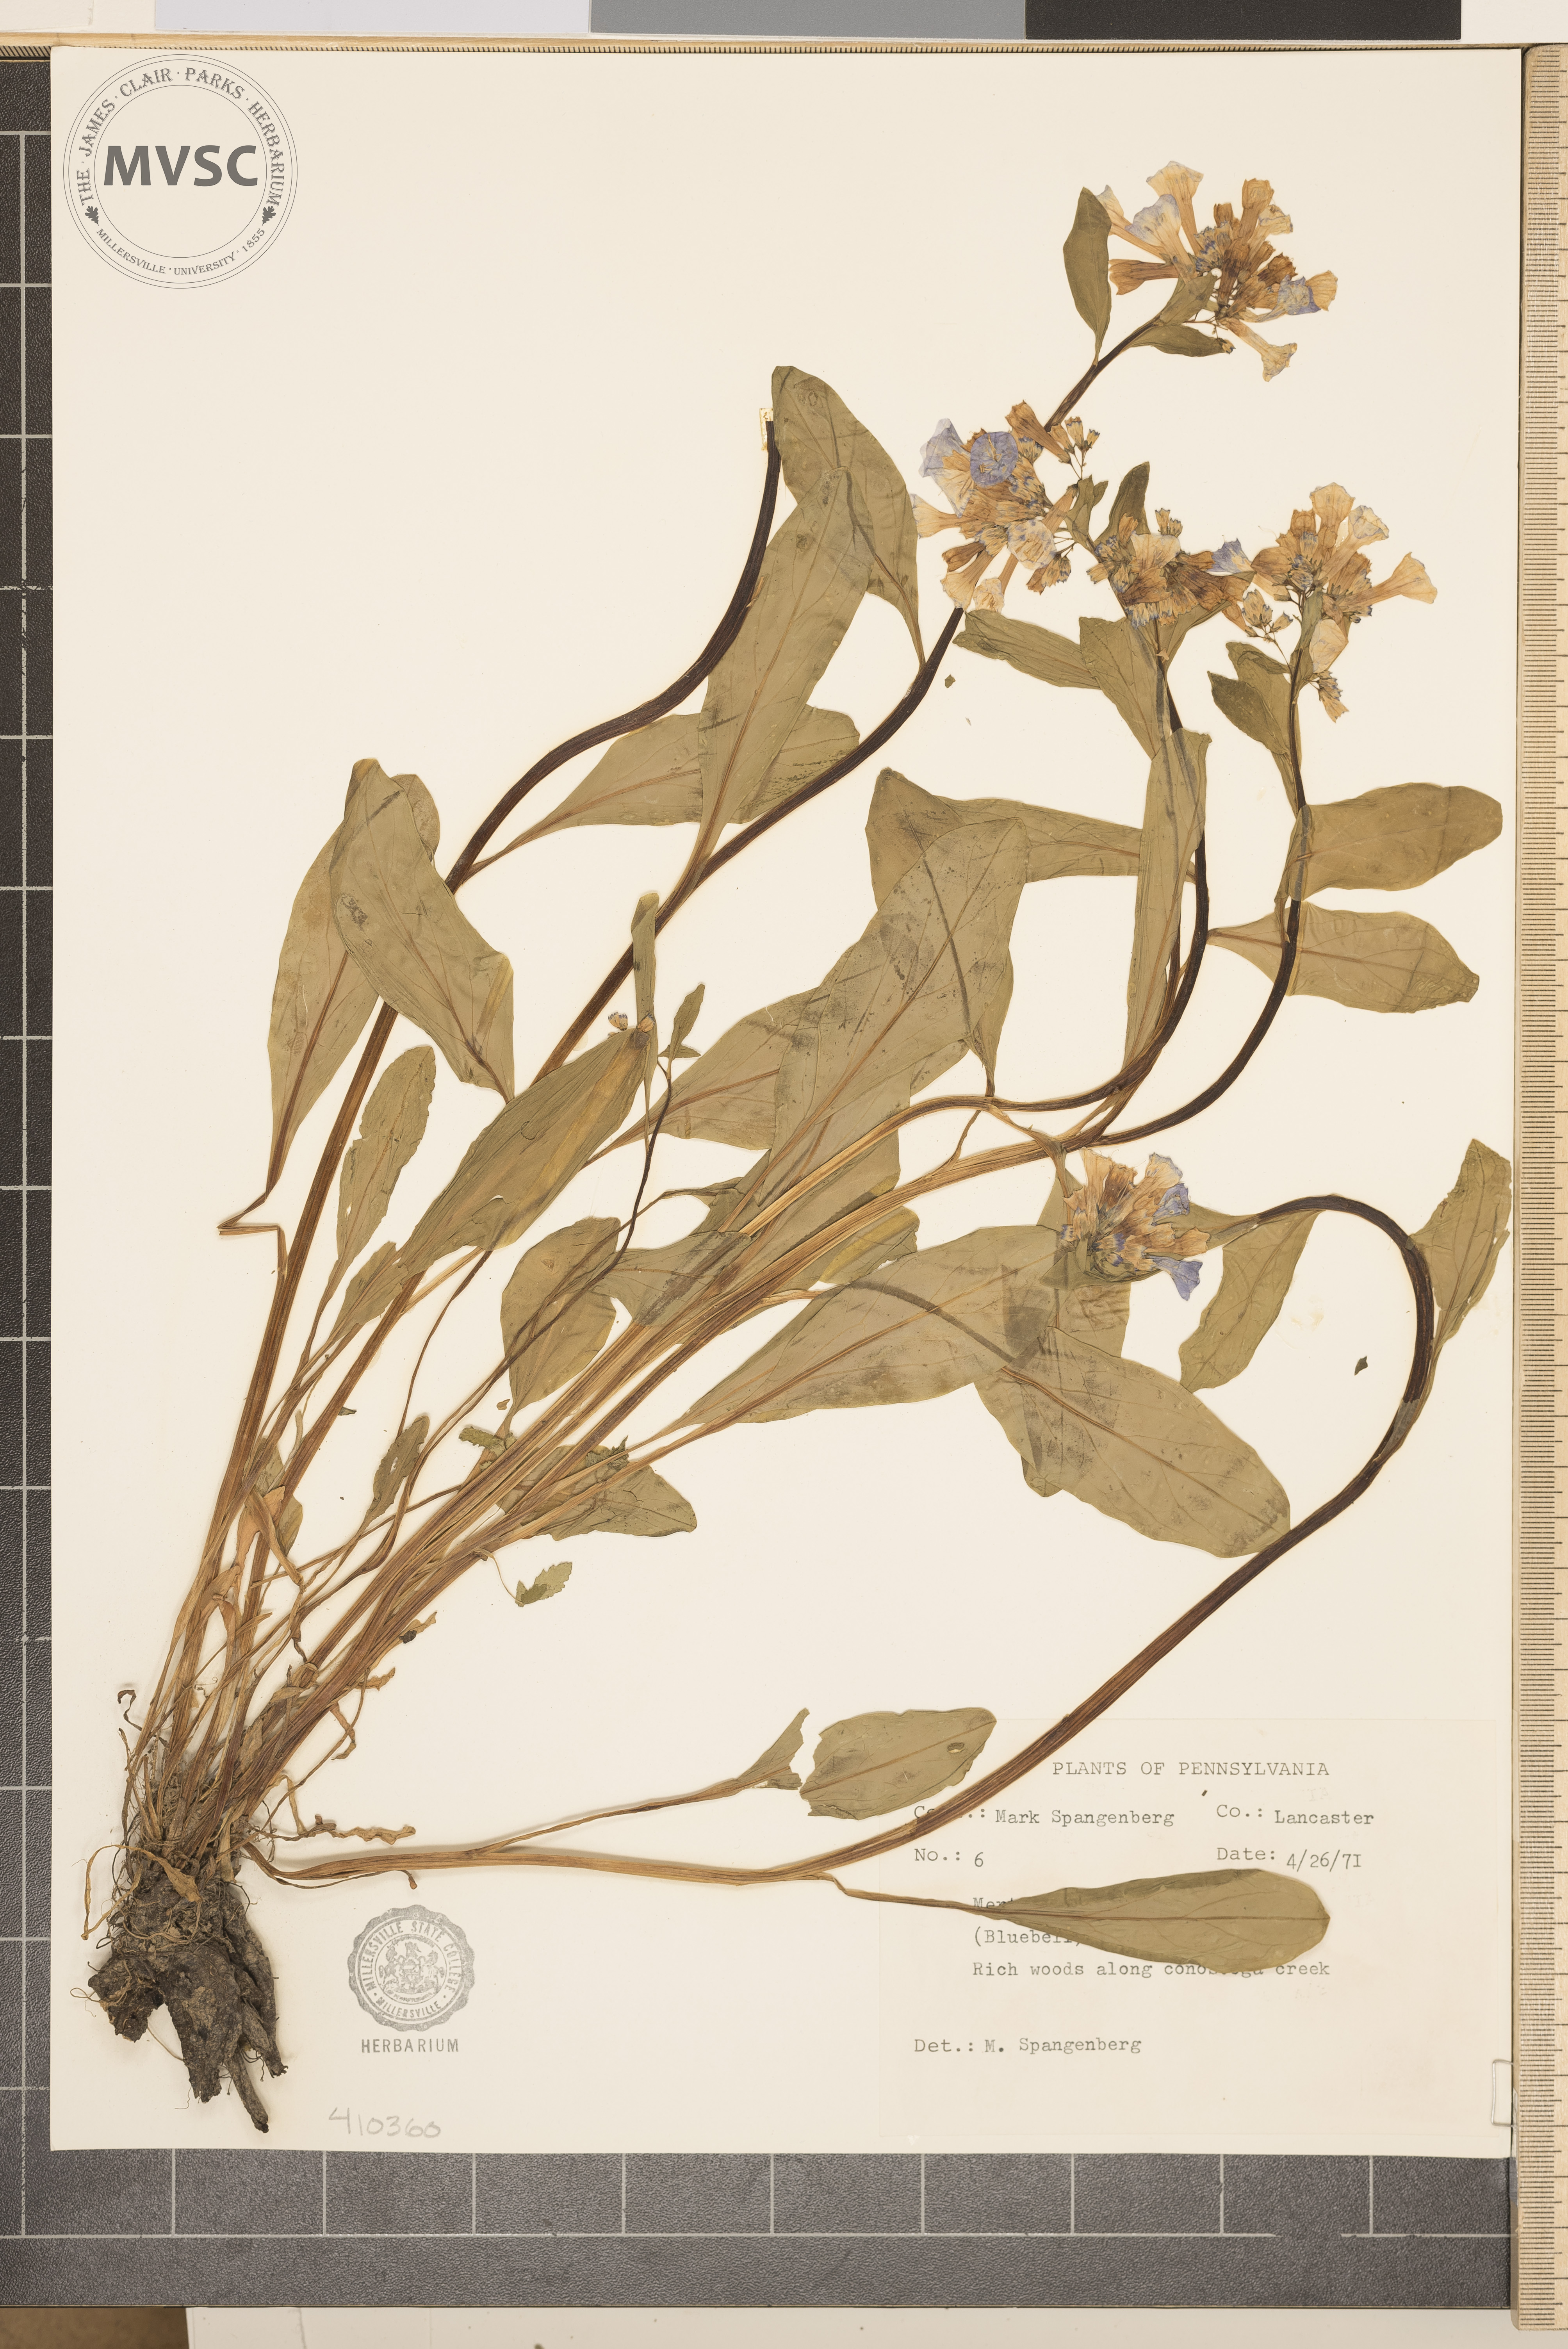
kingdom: Plantae
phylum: Tracheophyta
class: Magnoliopsida
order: Boraginales
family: Boraginaceae
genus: Mertensia
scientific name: Mertensia virginica
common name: Virginia bluebells
